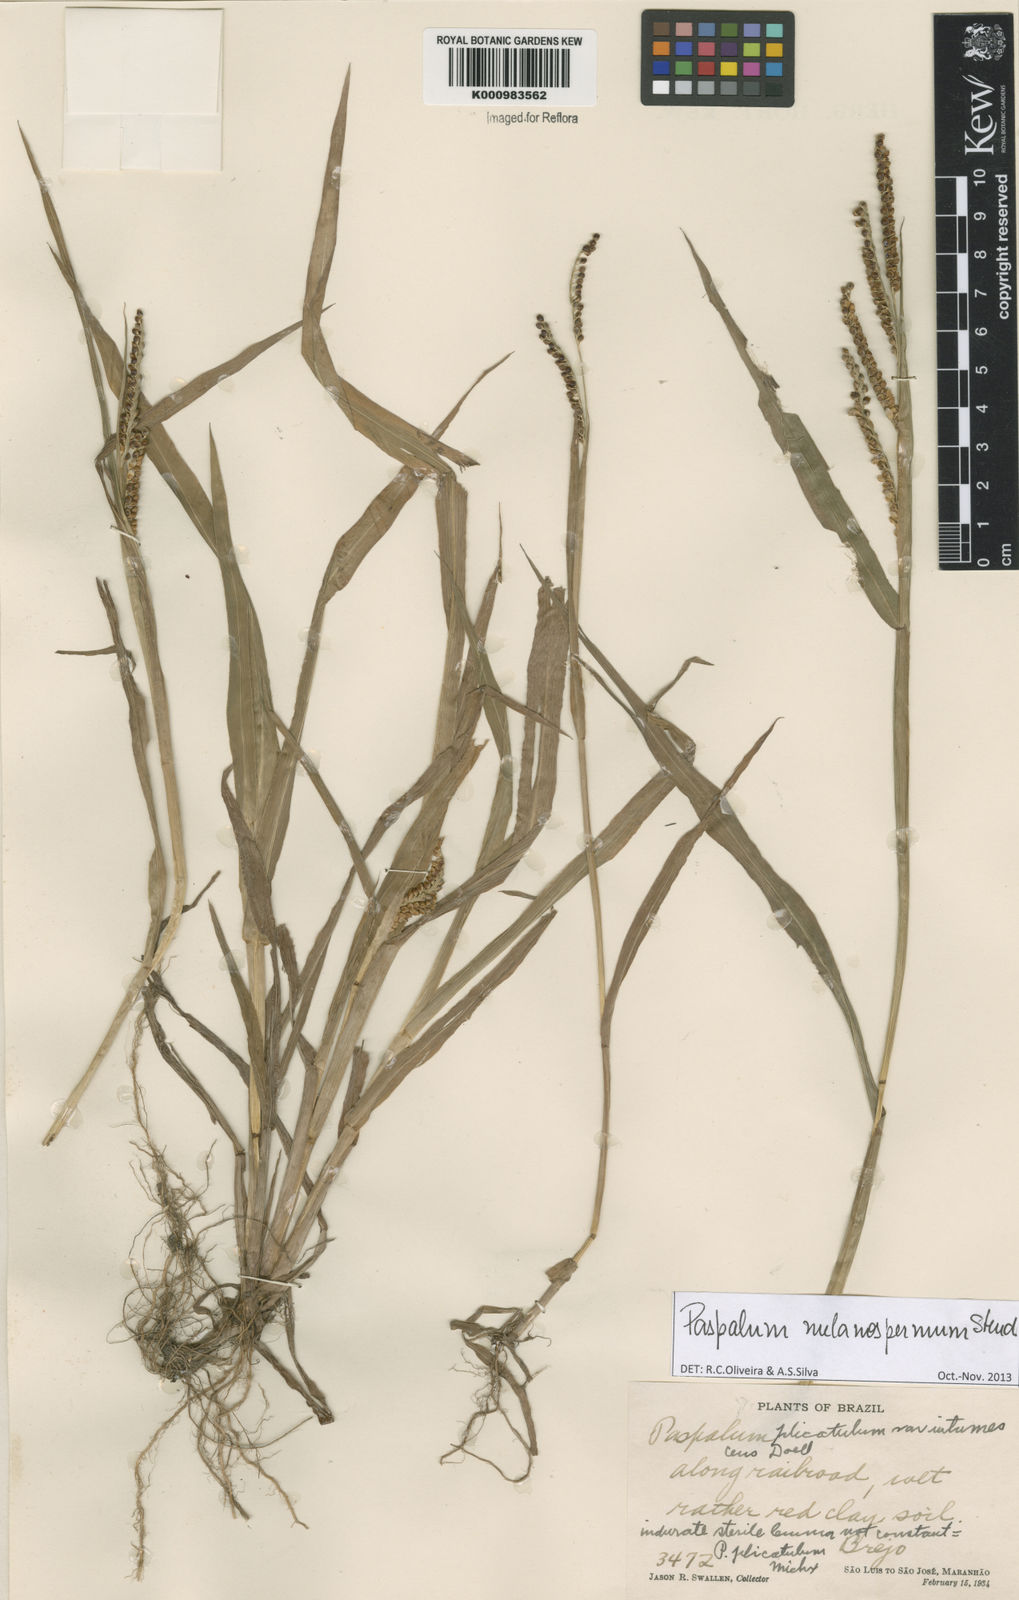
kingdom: Plantae
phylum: Tracheophyta
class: Liliopsida
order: Poales
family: Poaceae
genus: Paspalum
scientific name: Paspalum melanospermum
